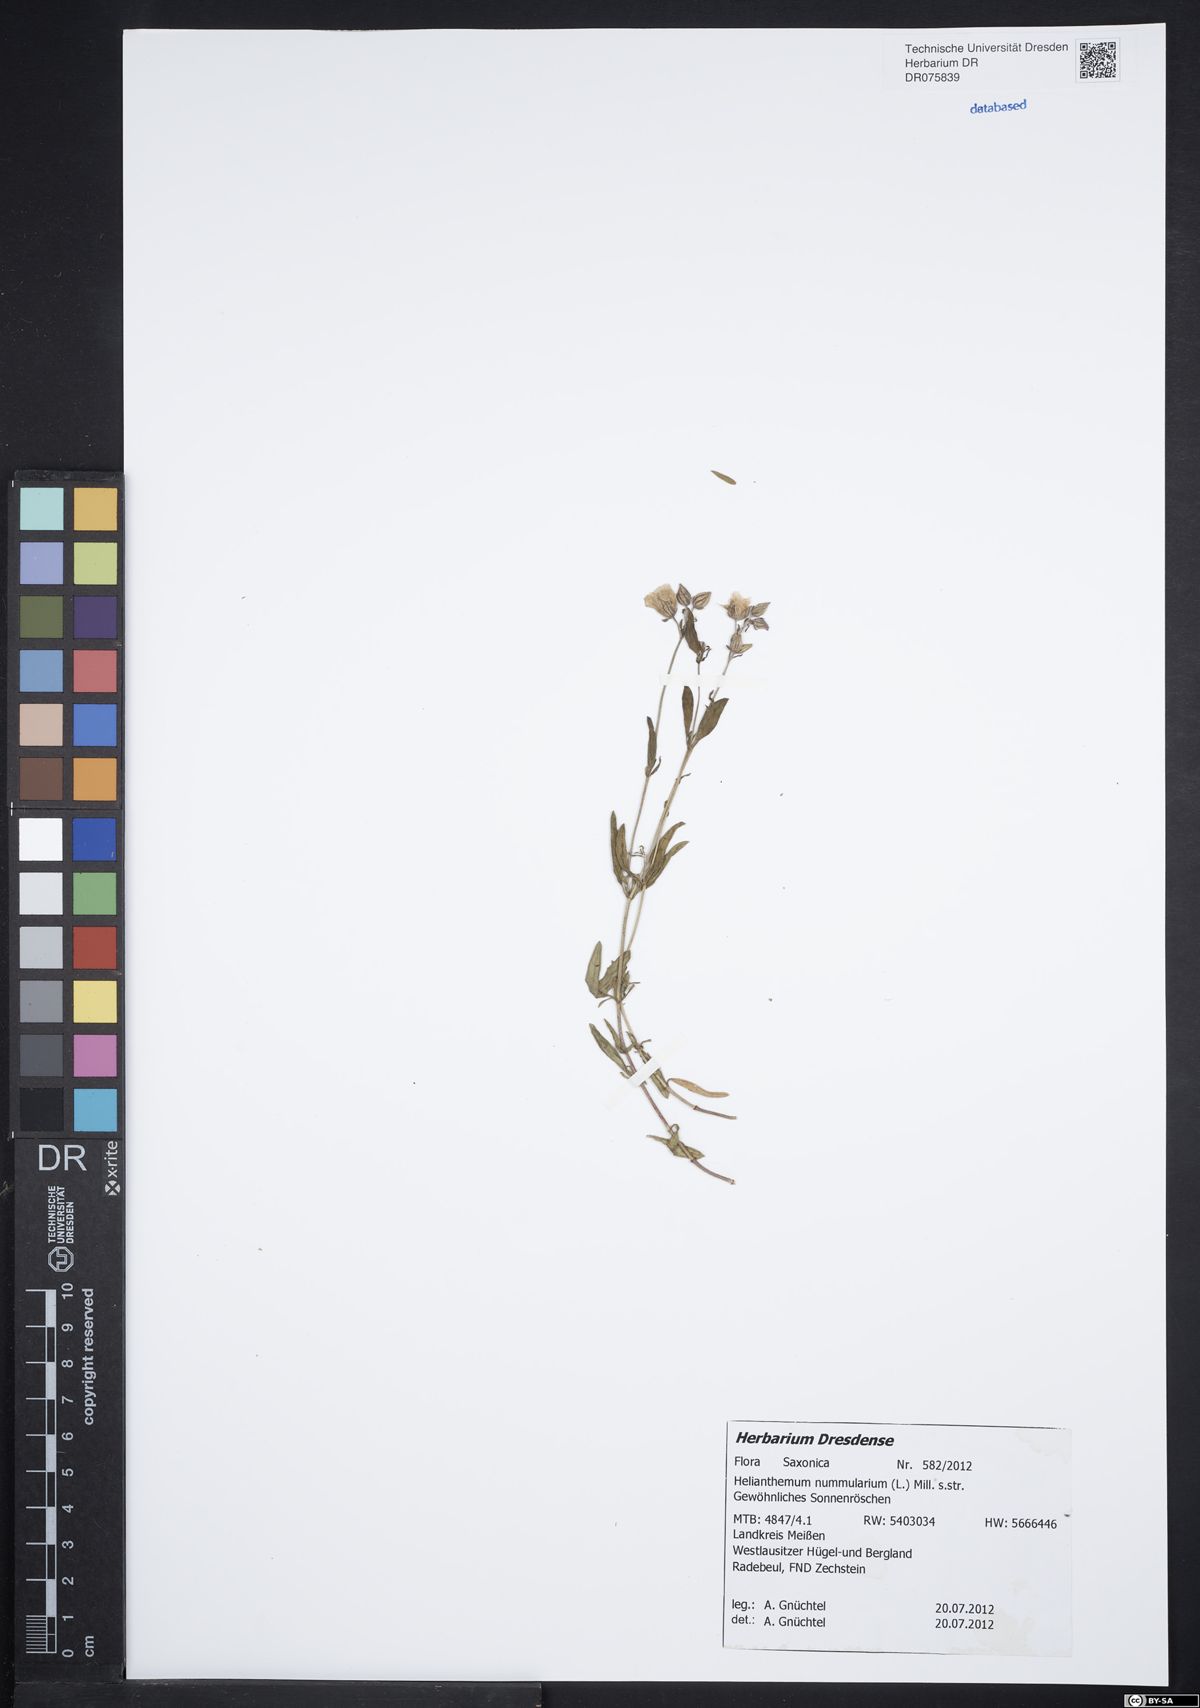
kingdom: Plantae
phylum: Tracheophyta
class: Magnoliopsida
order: Malvales
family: Cistaceae
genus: Helianthemum
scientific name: Helianthemum nummularium
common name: Common rock-rose
